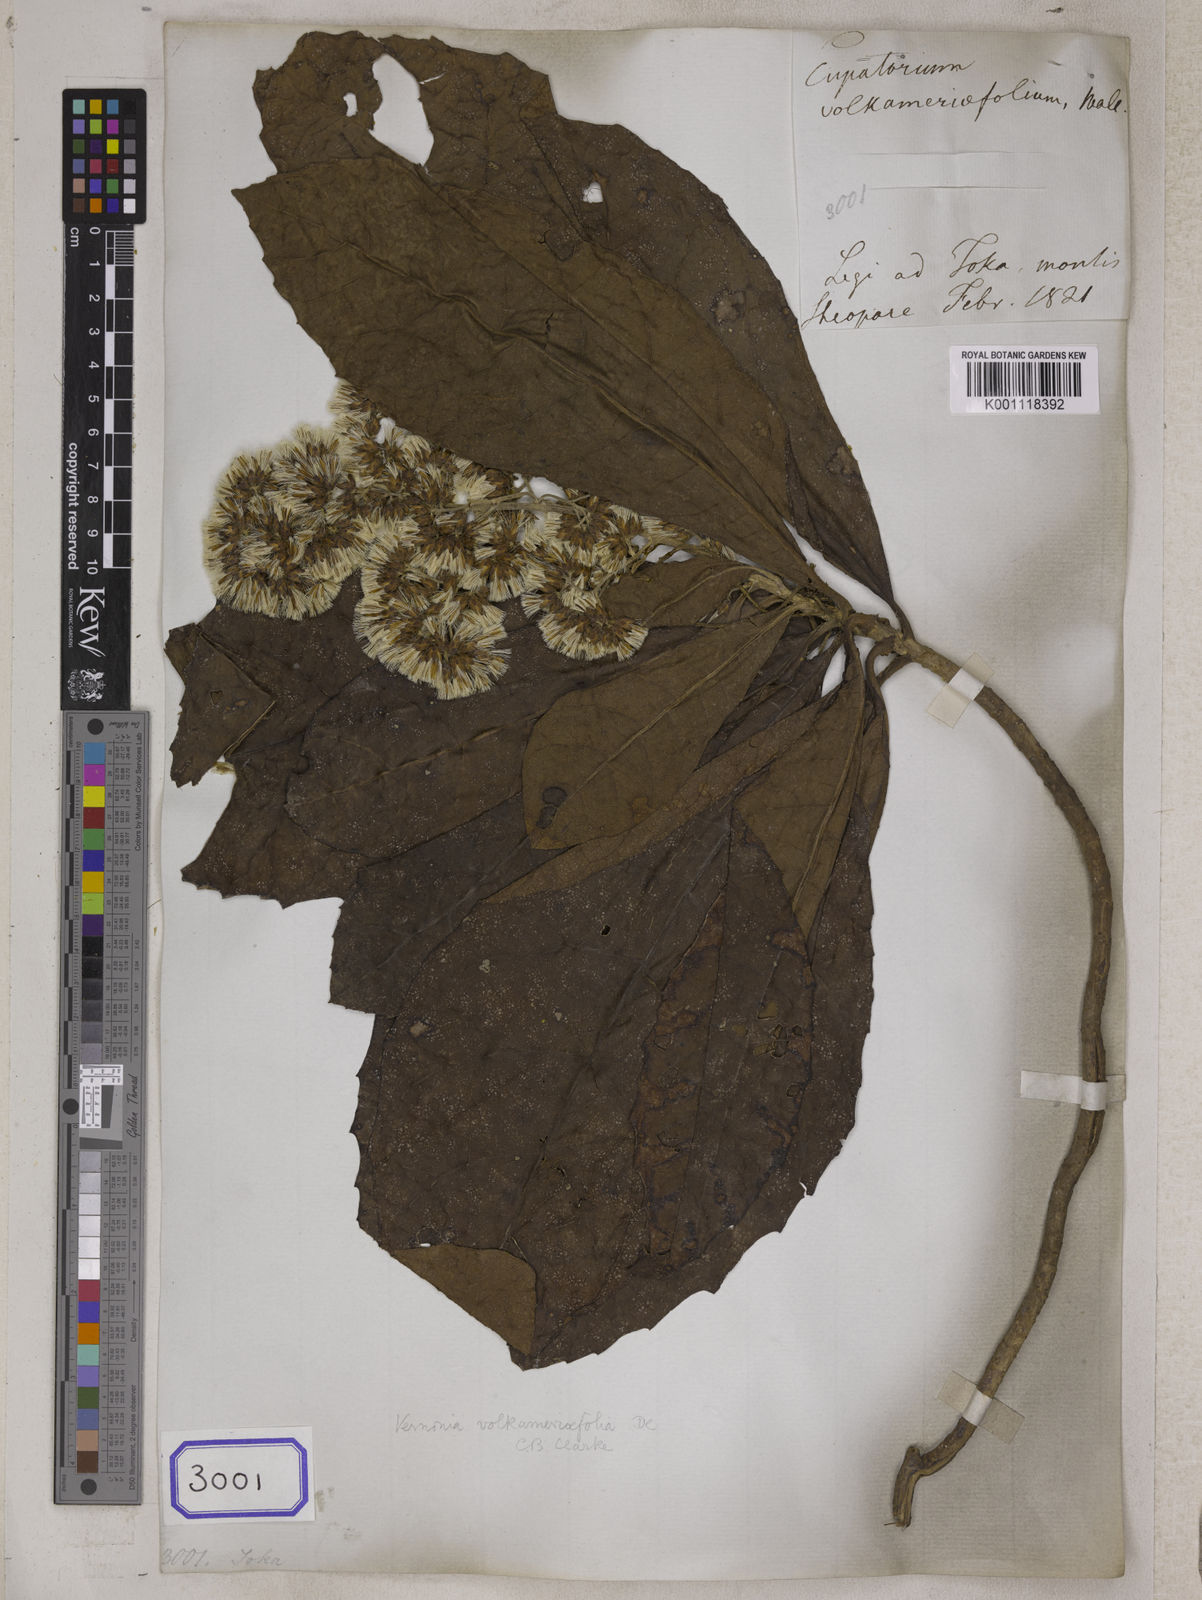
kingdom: Plantae
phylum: Tracheophyta
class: Magnoliopsida
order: Asterales
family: Asteraceae
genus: Conyza
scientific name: Conyza
